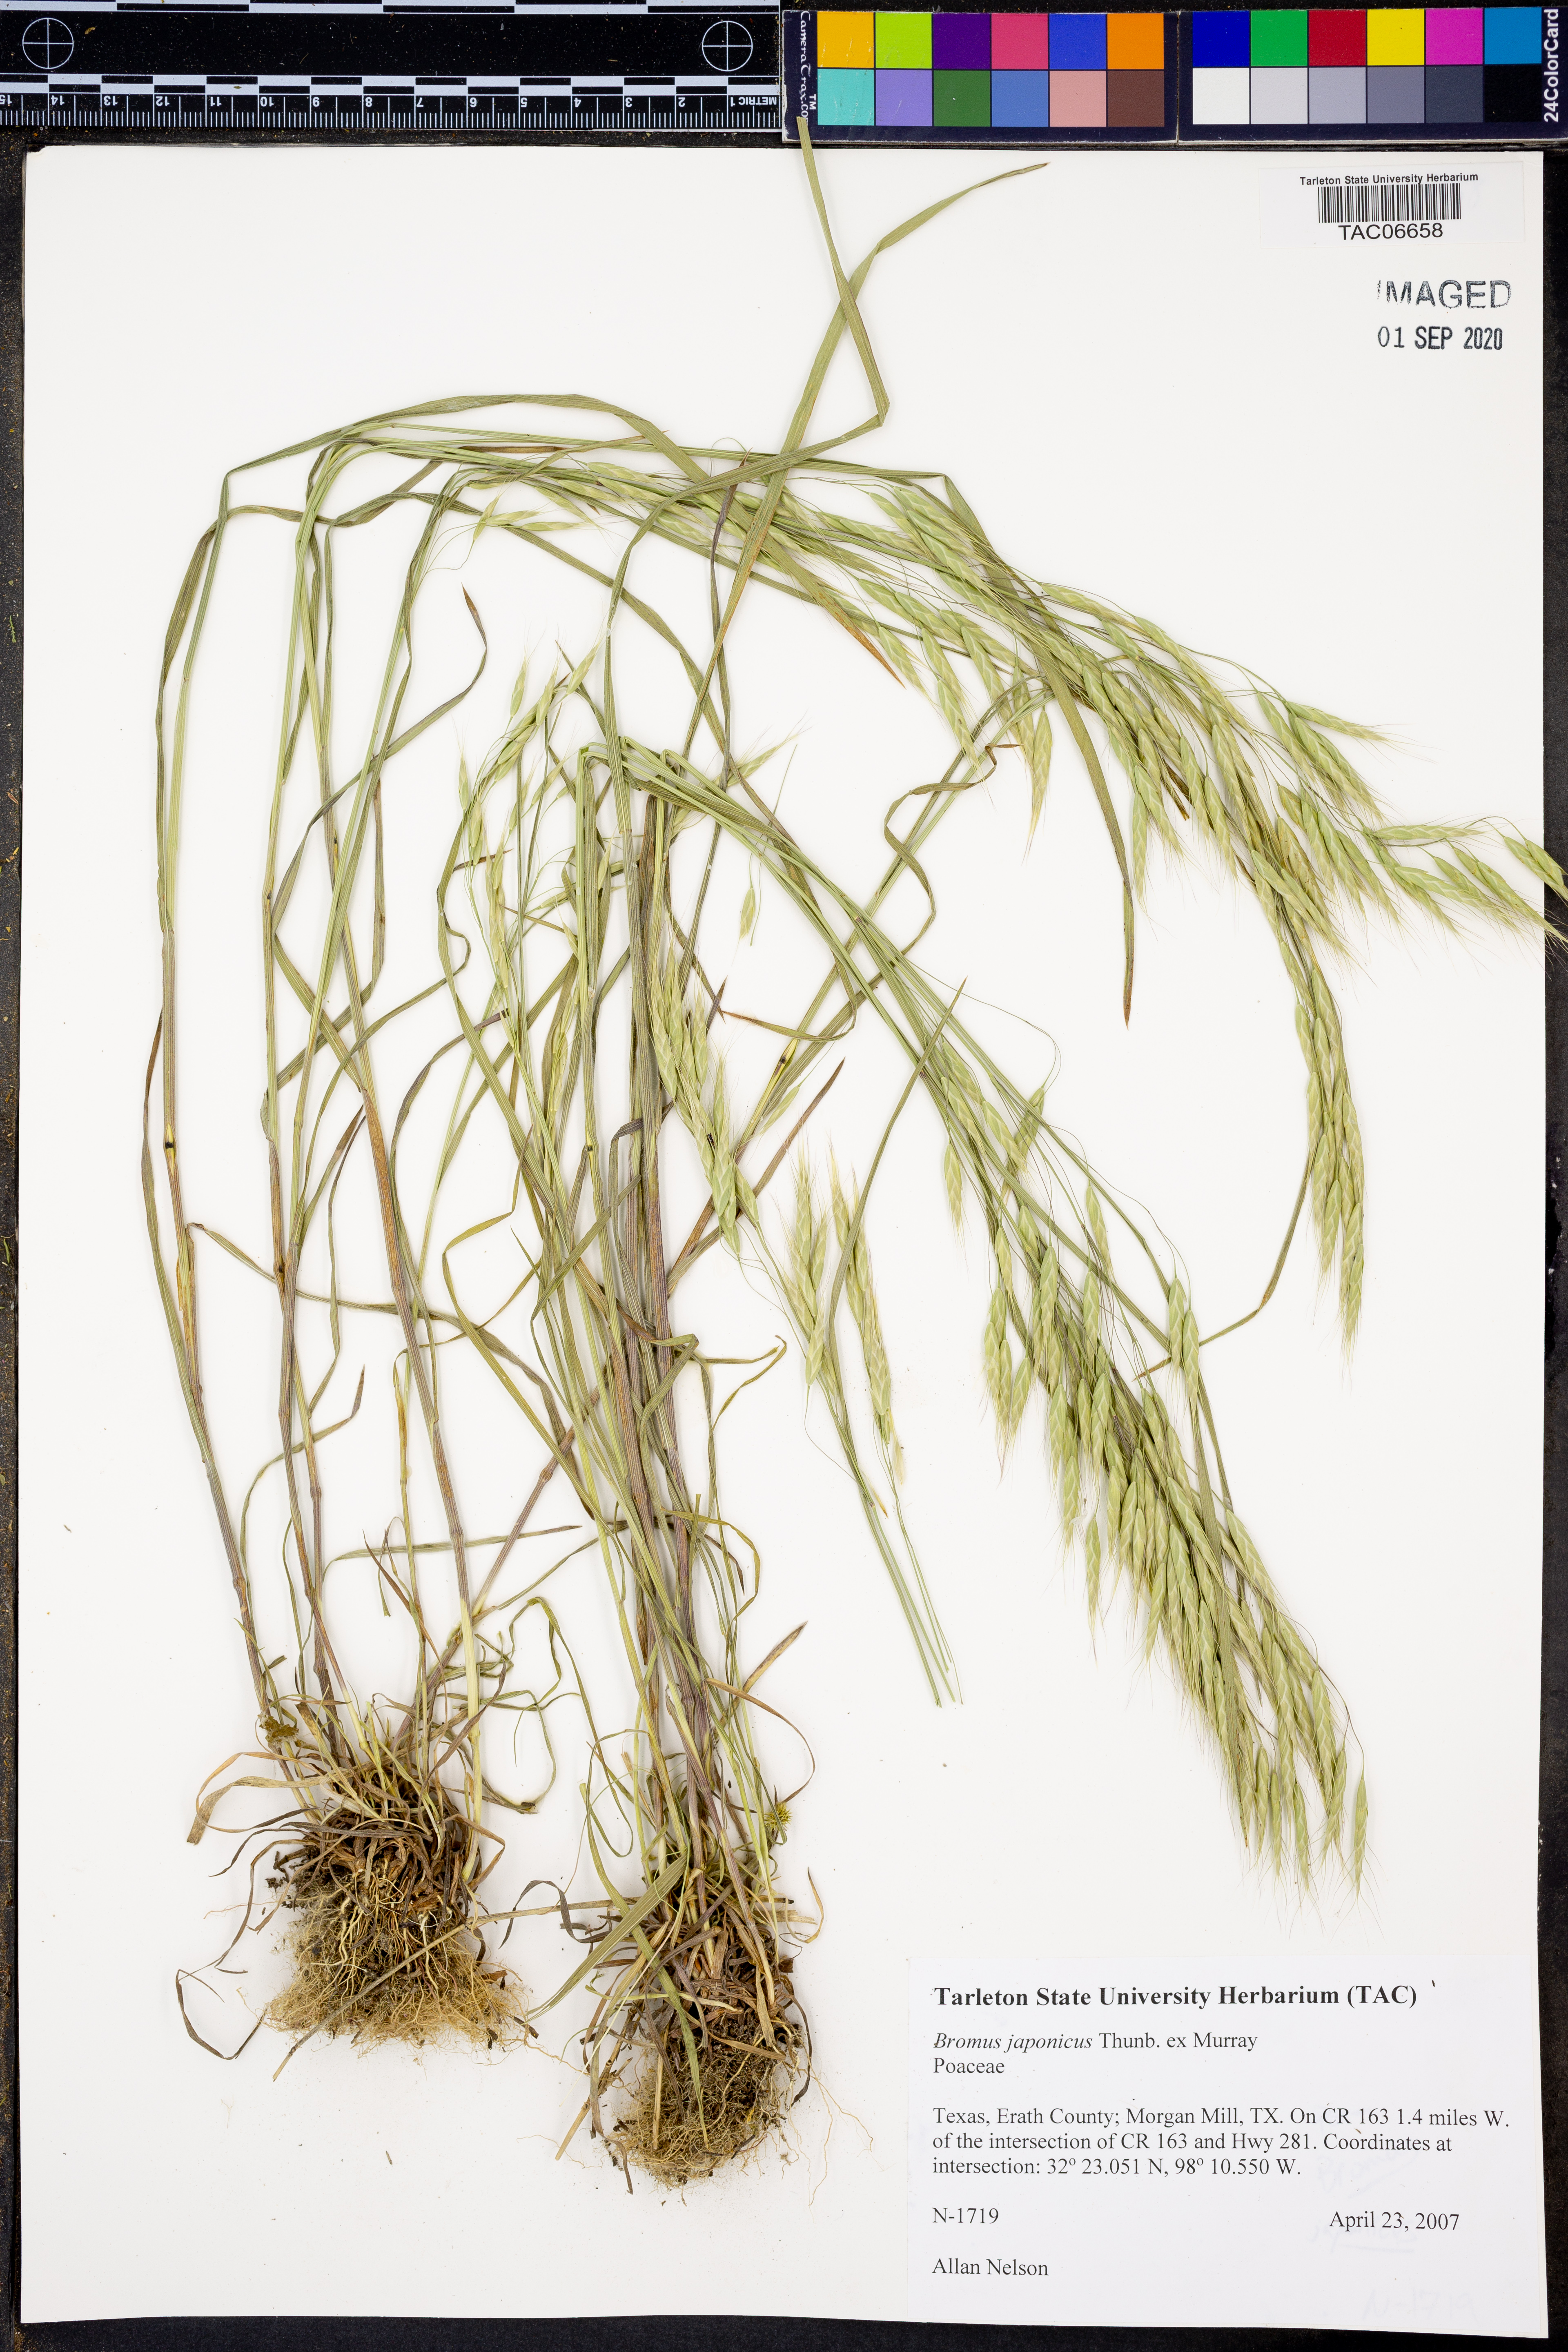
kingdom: Plantae
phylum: Tracheophyta
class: Liliopsida
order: Poales
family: Poaceae
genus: Bromus
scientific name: Bromus japonicus
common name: Japanese brome
